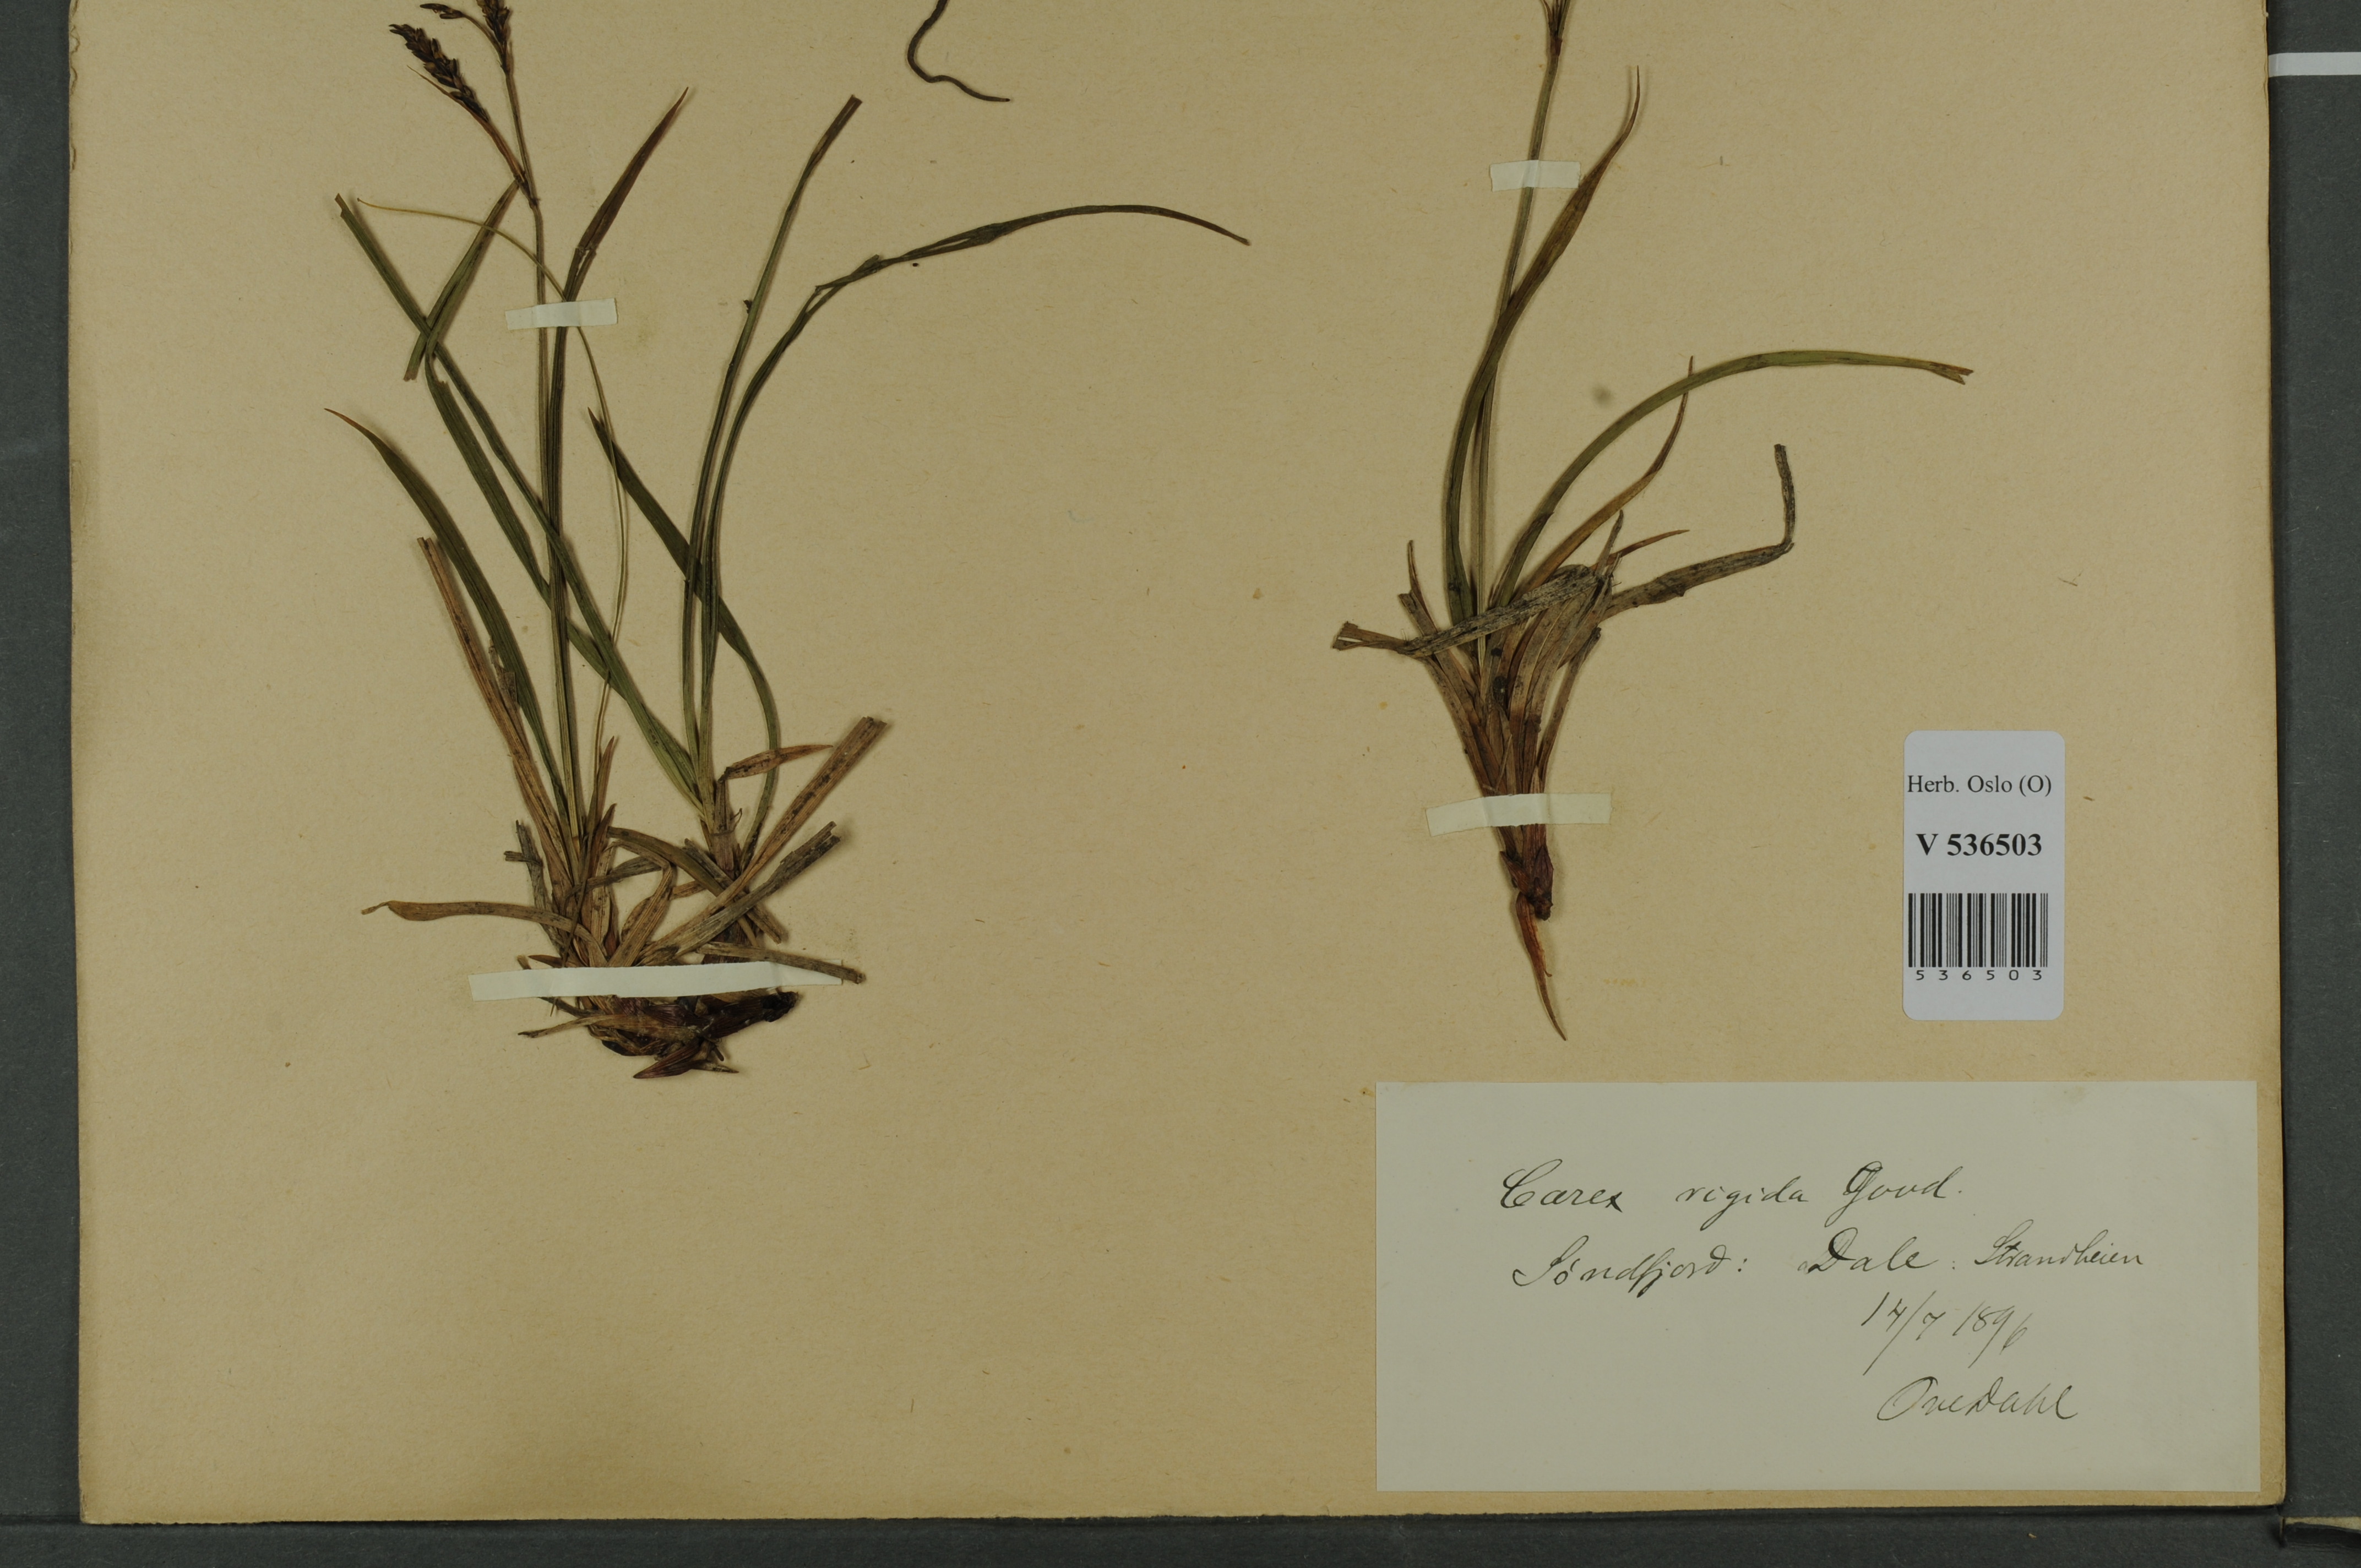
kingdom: Plantae
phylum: Tracheophyta
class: Liliopsida
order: Poales
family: Cyperaceae
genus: Carex
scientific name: Carex dacica
